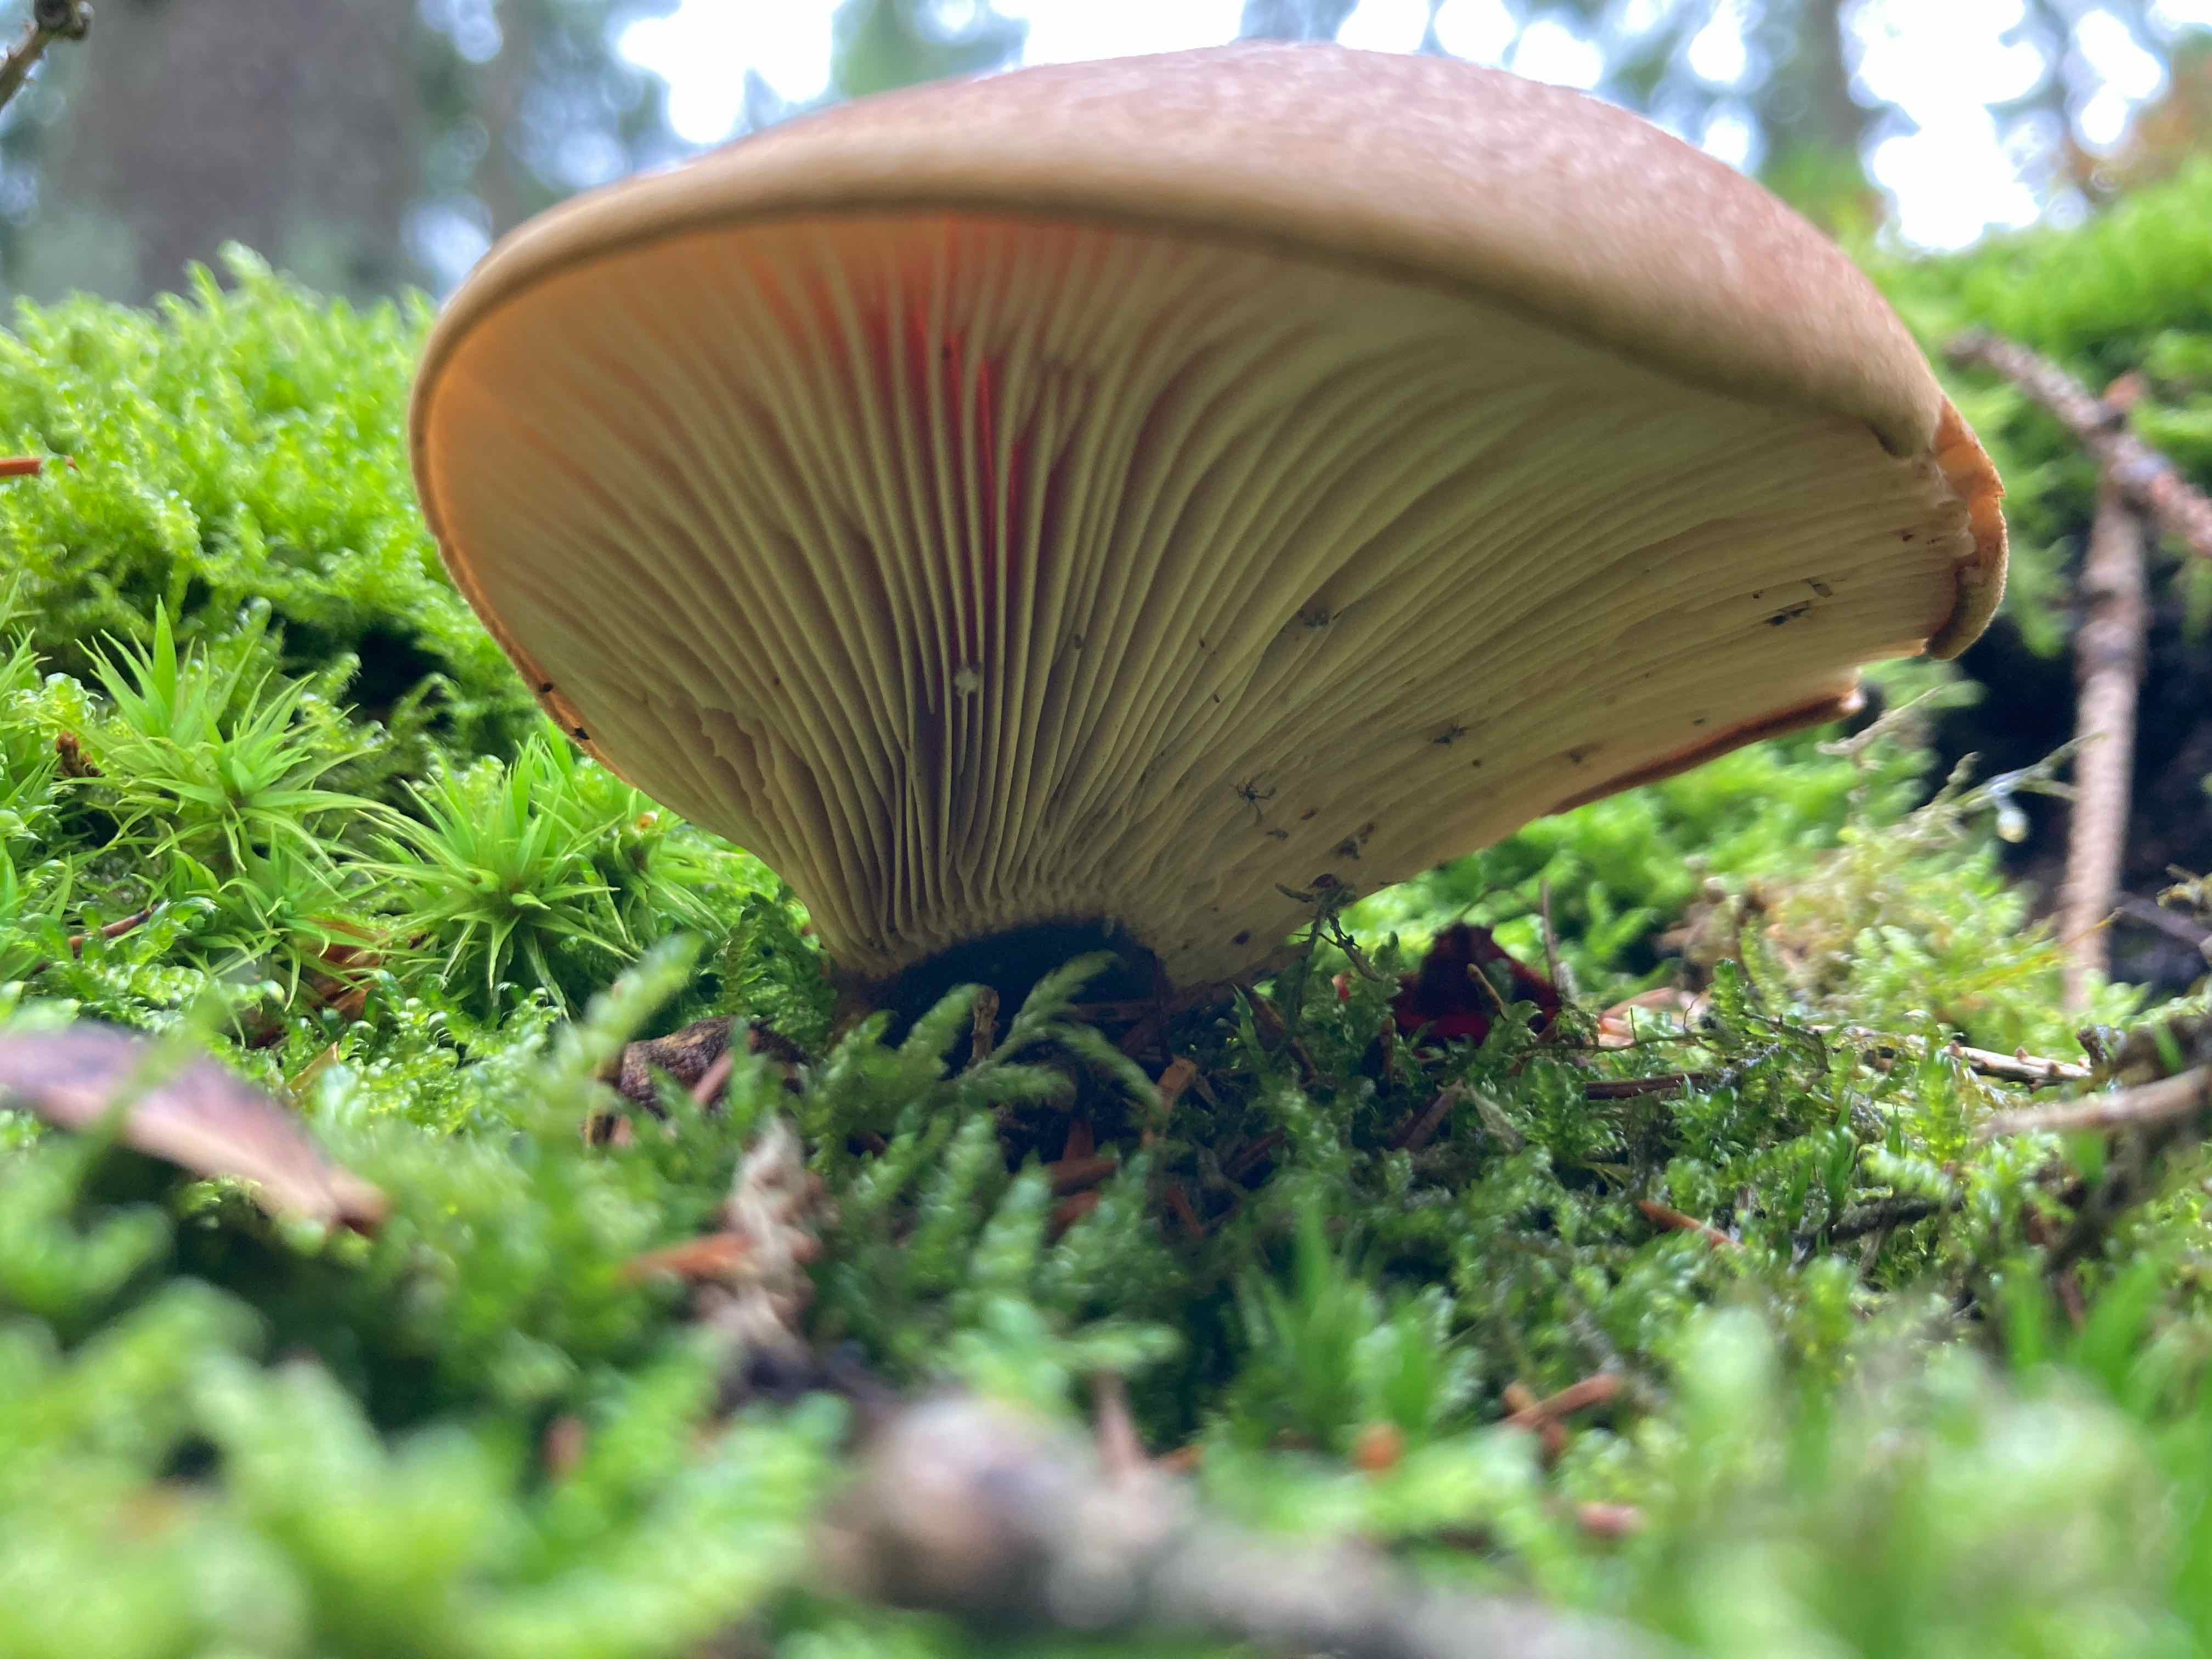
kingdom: Fungi
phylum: Basidiomycota
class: Agaricomycetes
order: Boletales
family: Tapinellaceae
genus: Tapinella
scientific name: Tapinella atrotomentosa
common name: sortfiltet viftesvamp
